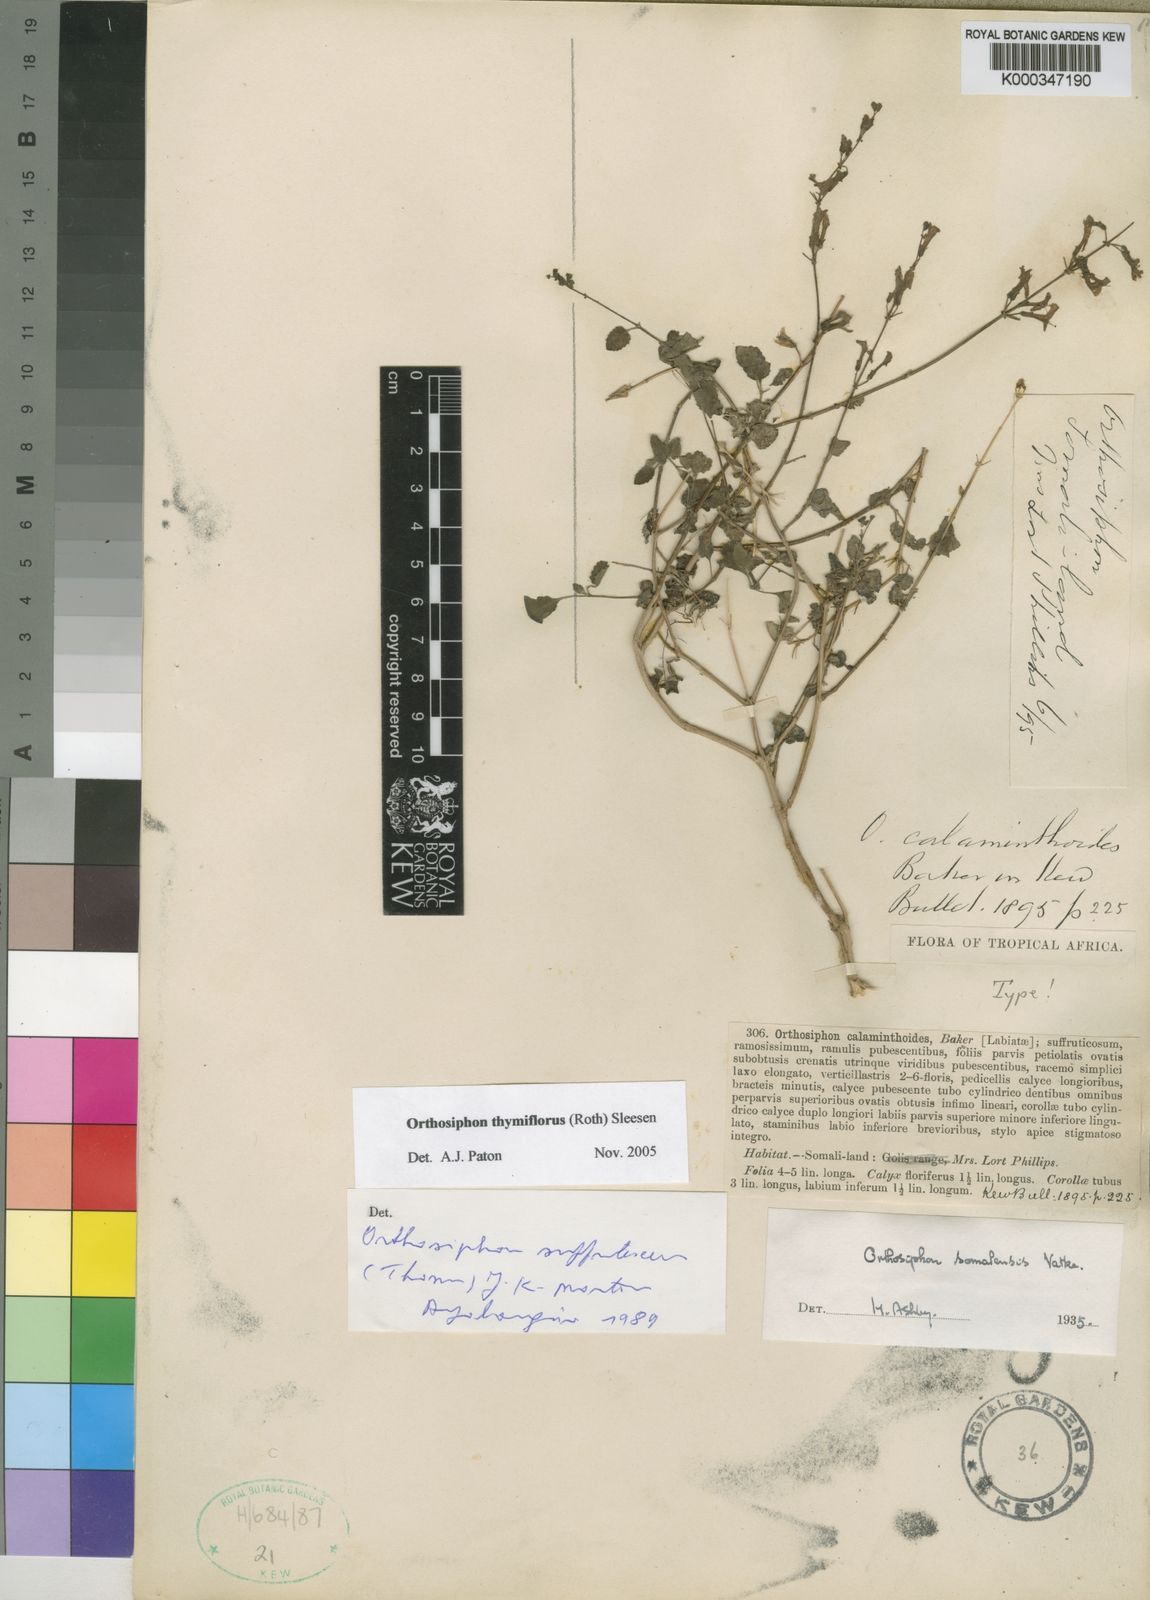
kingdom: Plantae
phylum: Tracheophyta
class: Magnoliopsida
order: Lamiales
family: Lamiaceae
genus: Orthosiphon
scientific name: Orthosiphon thymiflorus
